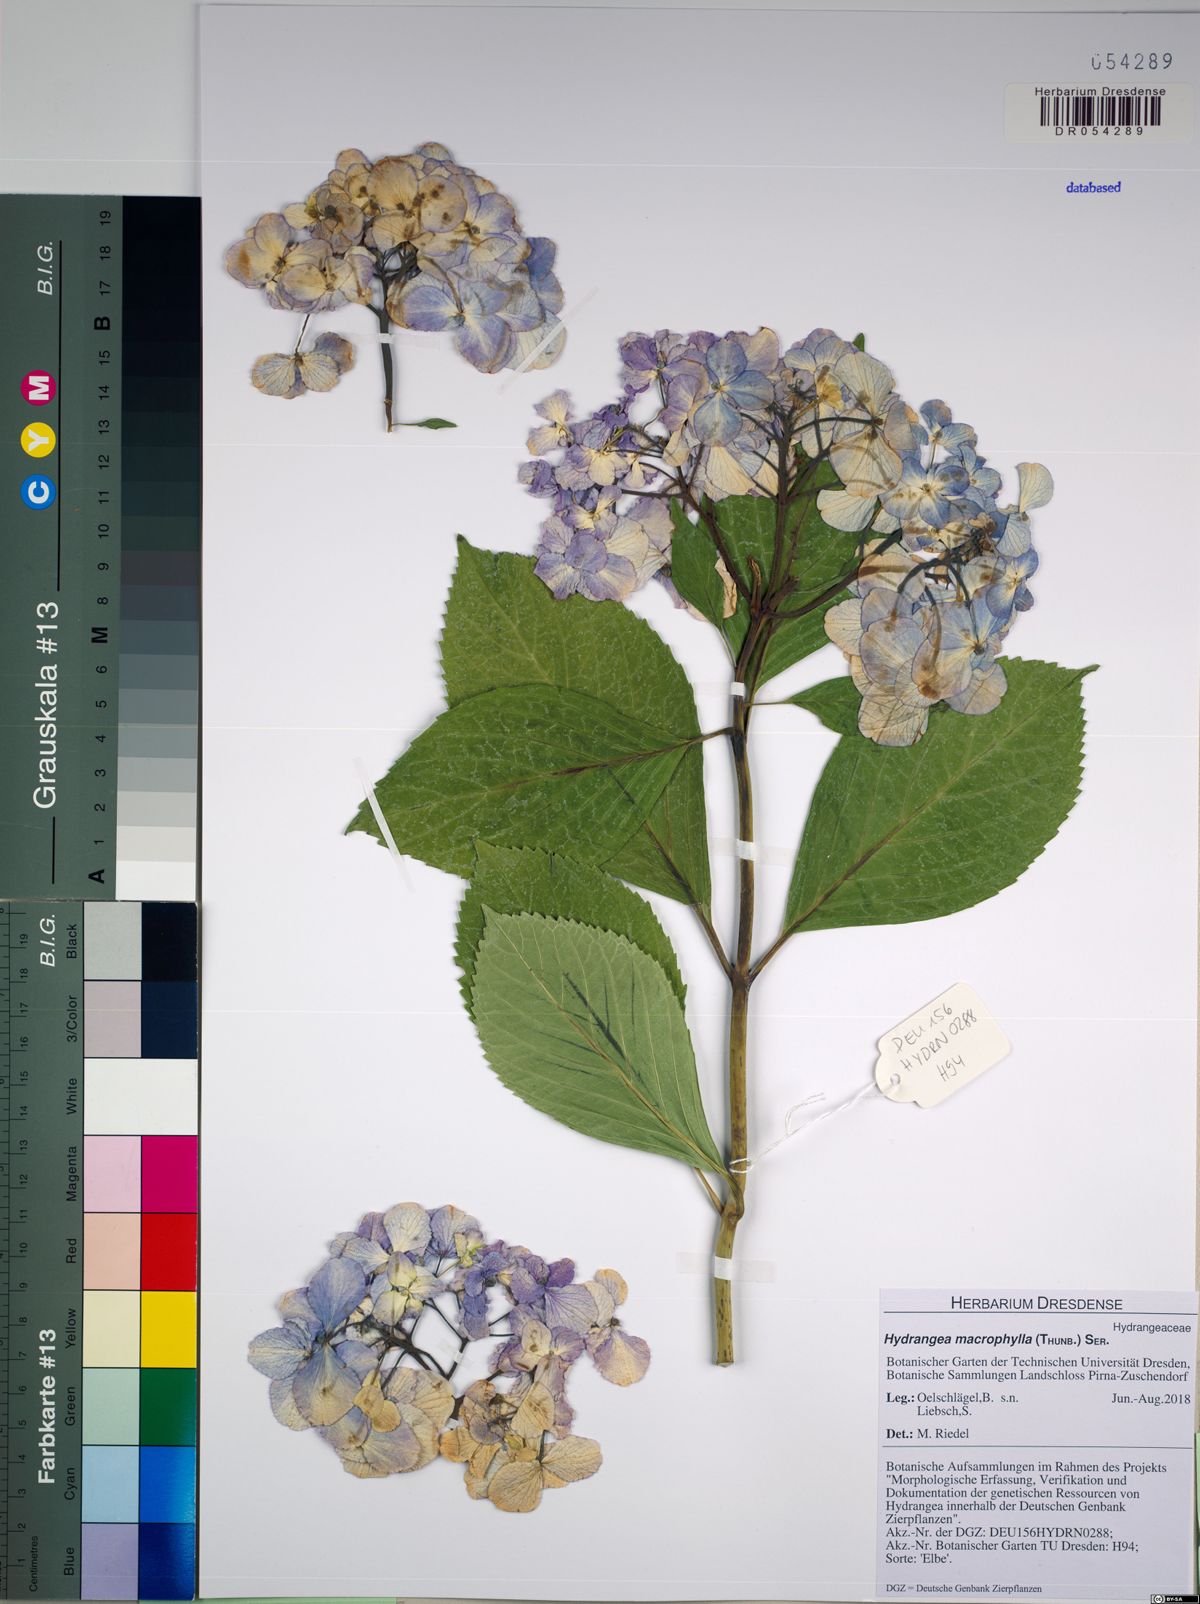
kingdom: Plantae
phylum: Tracheophyta
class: Magnoliopsida
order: Cornales
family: Hydrangeaceae
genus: Hydrangea
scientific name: Hydrangea macrophylla
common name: Hydrangea
